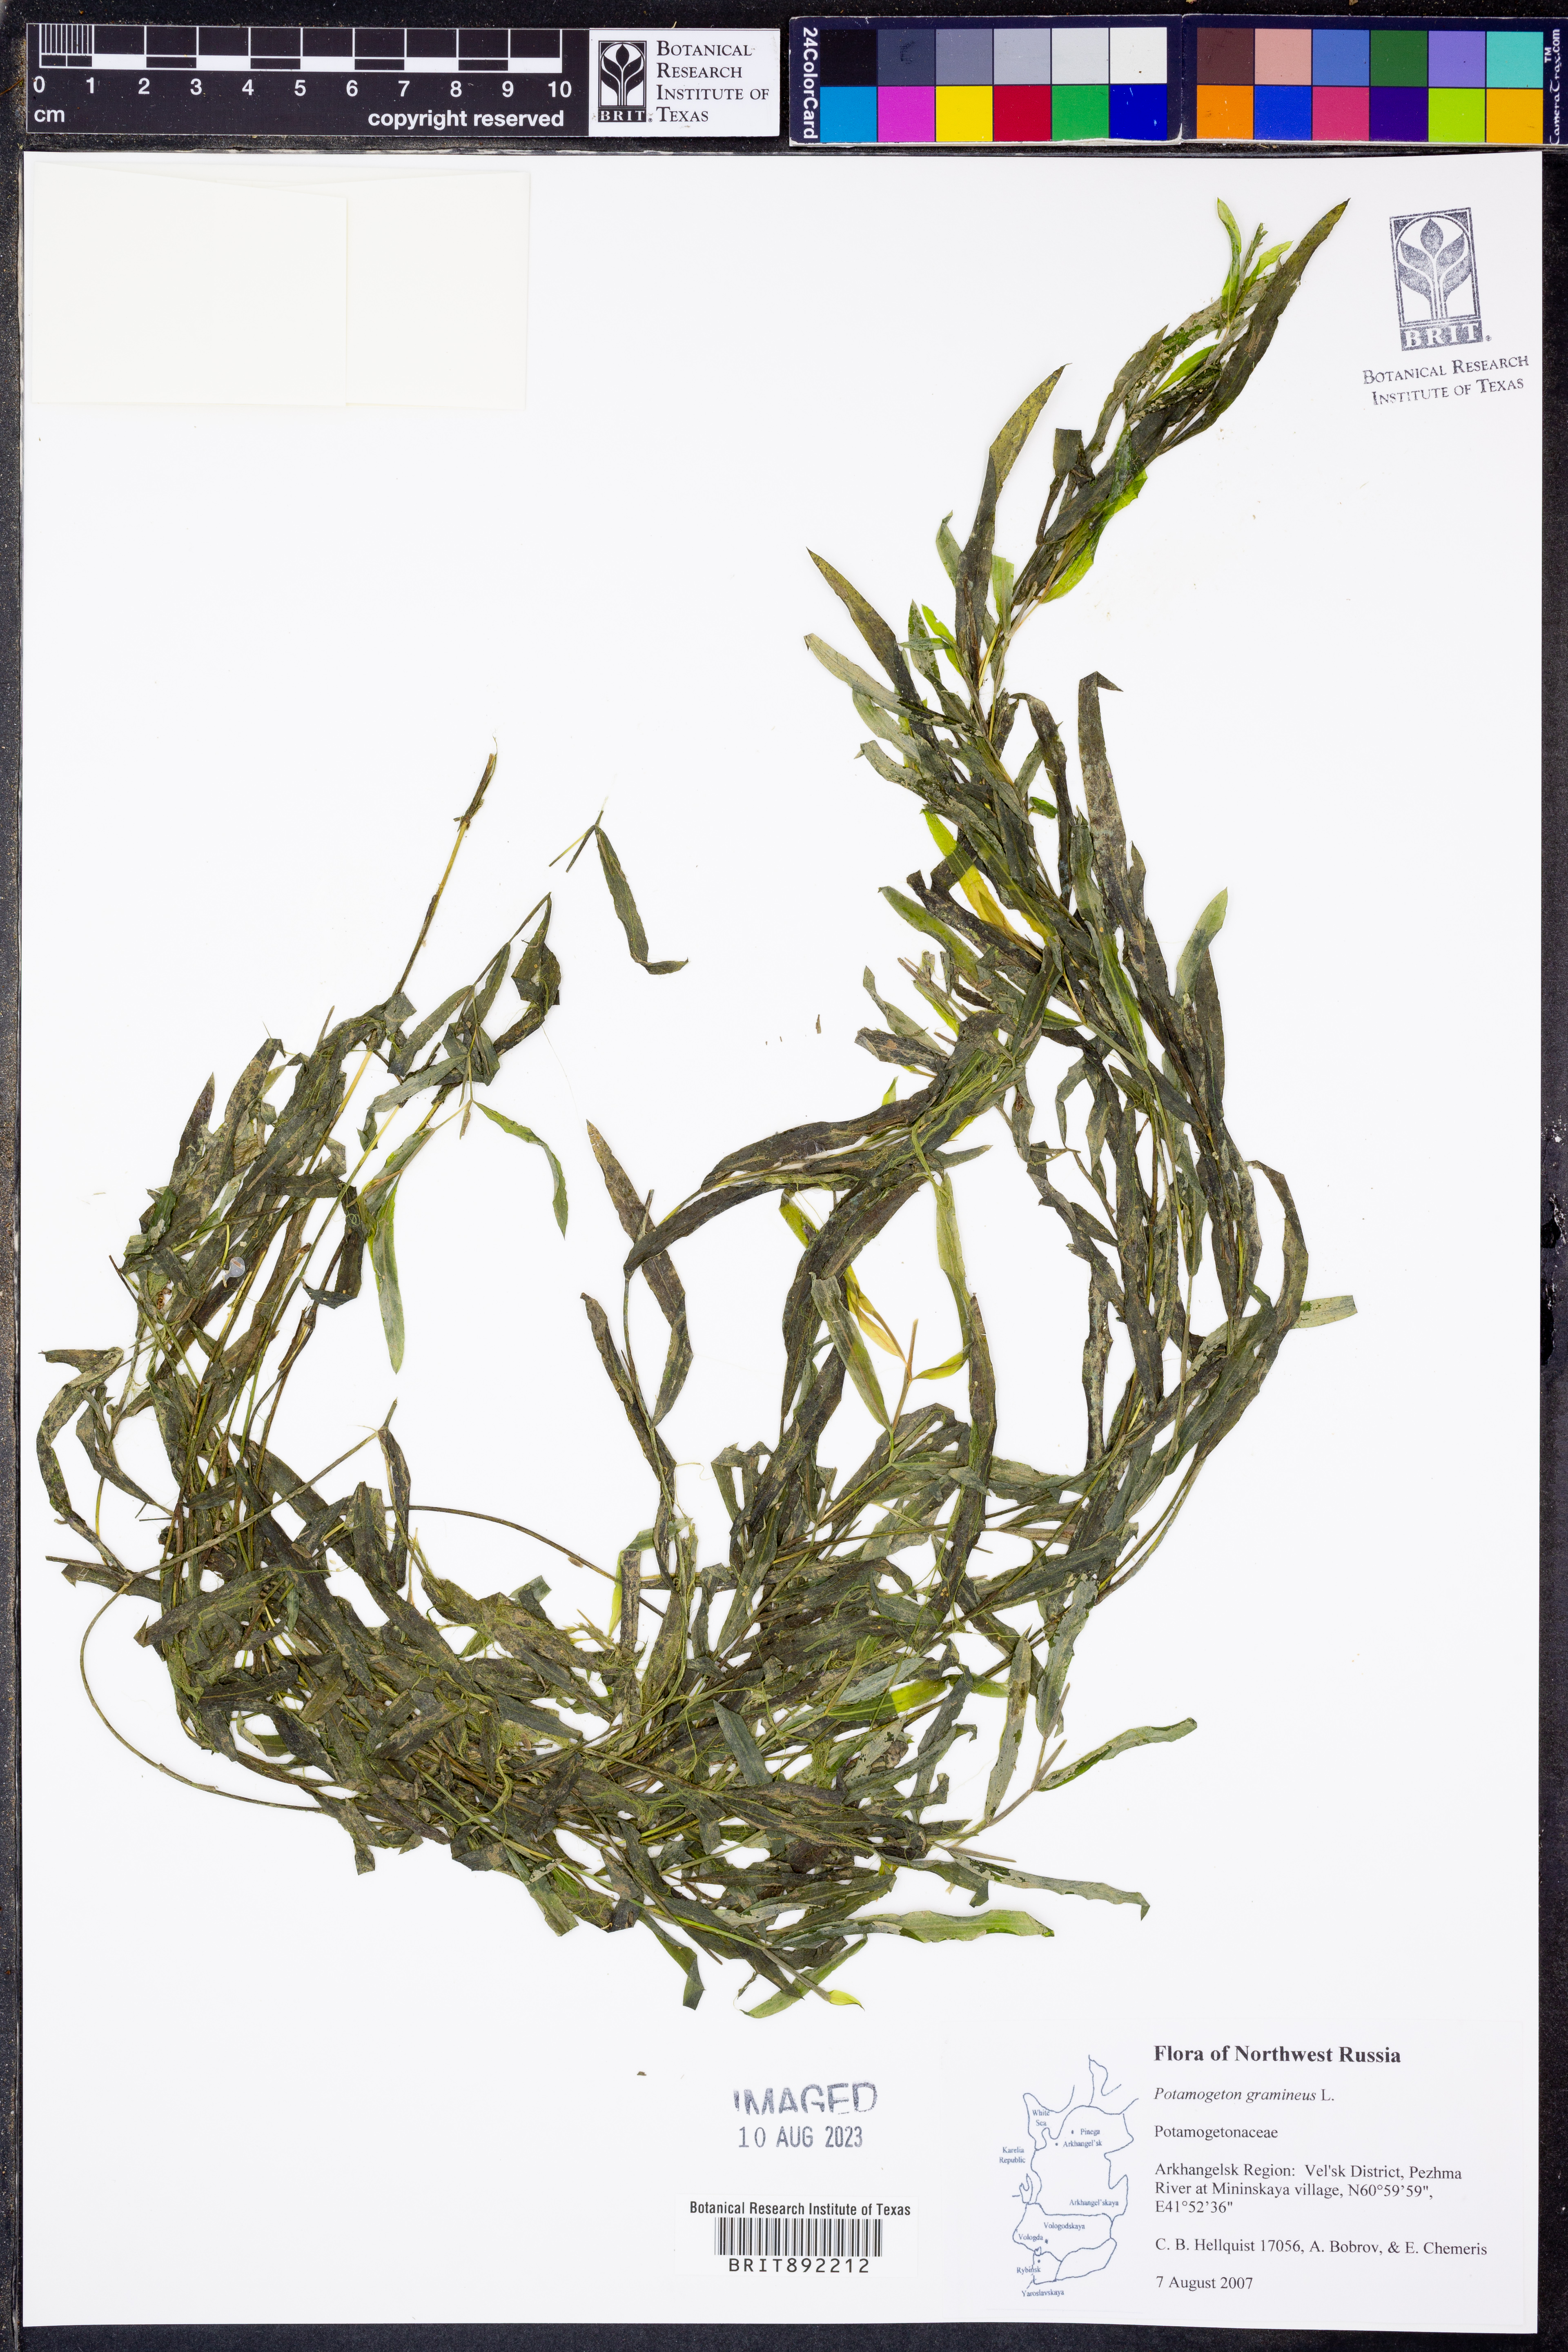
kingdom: Plantae
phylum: Tracheophyta
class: Liliopsida
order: Alismatales
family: Potamogetonaceae
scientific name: Potamogetonaceae
